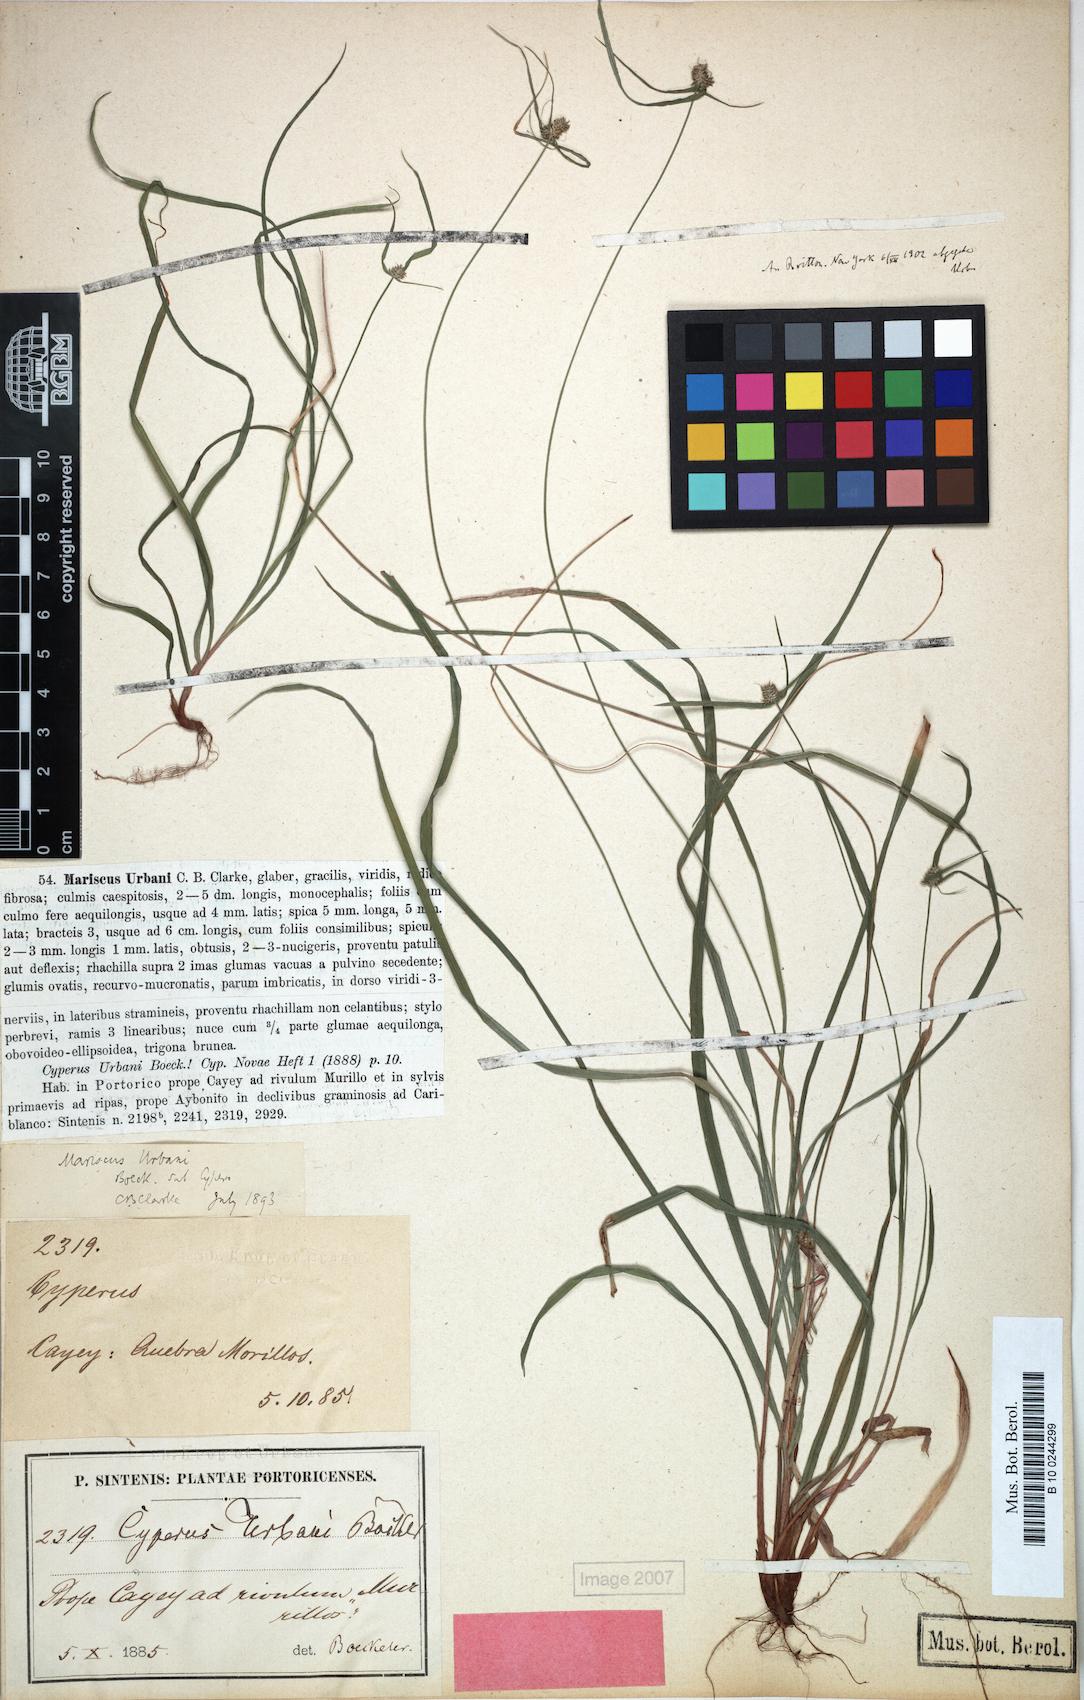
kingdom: Plantae
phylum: Tracheophyta
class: Liliopsida
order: Poales
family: Cyperaceae
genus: Cyperus
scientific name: Cyperus urbani
